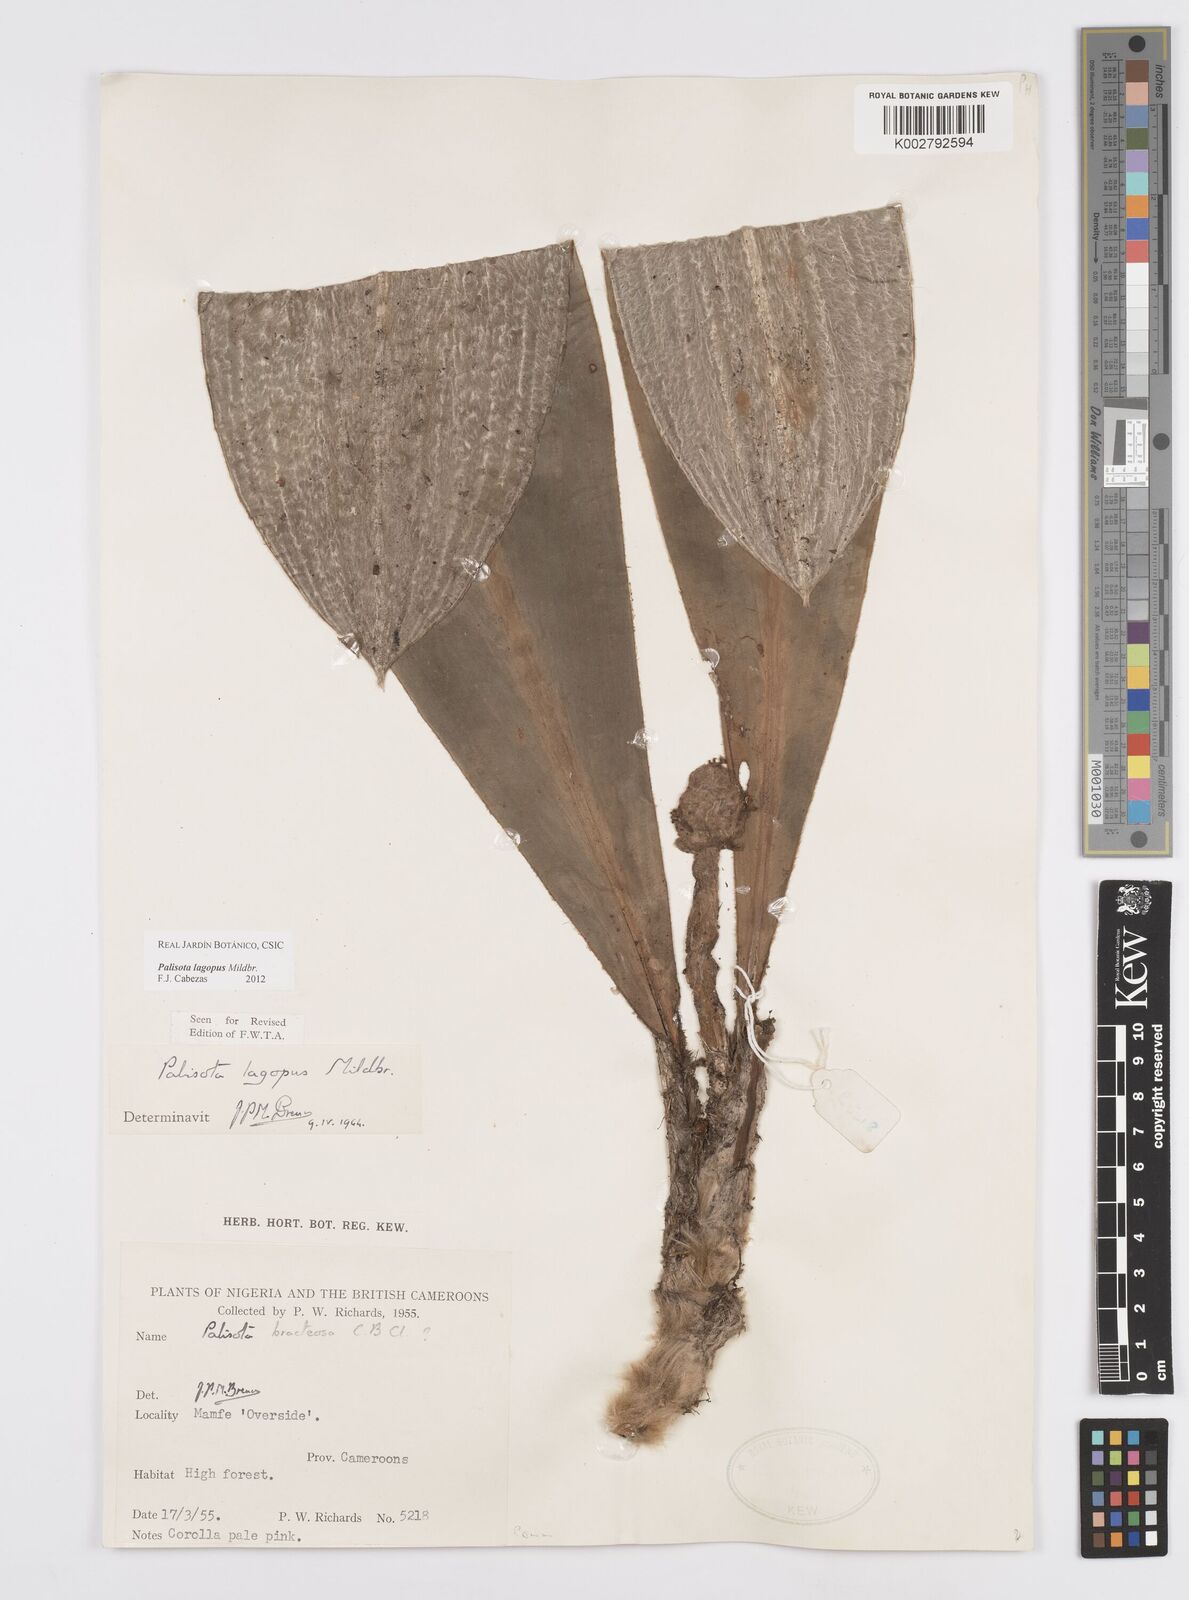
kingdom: Plantae
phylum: Tracheophyta
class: Liliopsida
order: Commelinales
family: Commelinaceae
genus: Palisota
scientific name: Palisota lagopus
